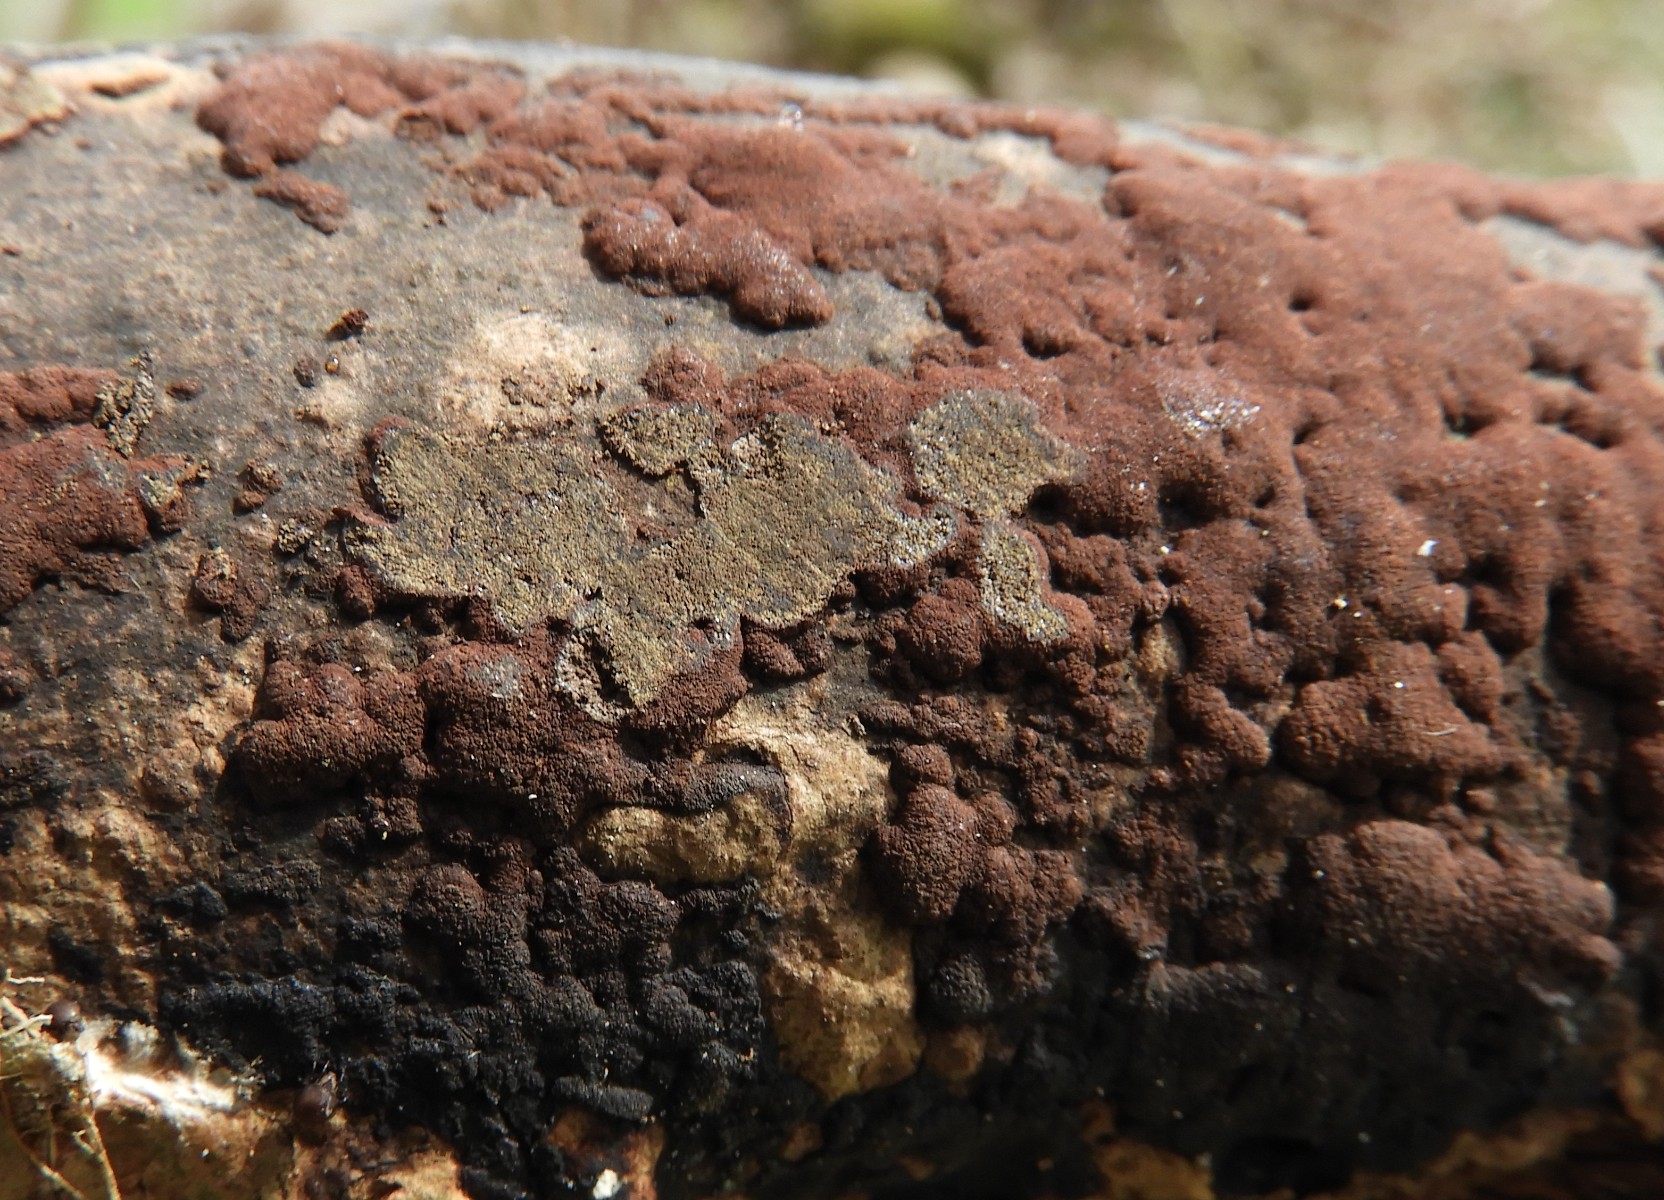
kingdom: Fungi
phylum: Ascomycota
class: Sordariomycetes
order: Xylariales
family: Hypoxylaceae
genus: Hypoxylon
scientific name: Hypoxylon rubiginosum
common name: rustfarvet kulbær
